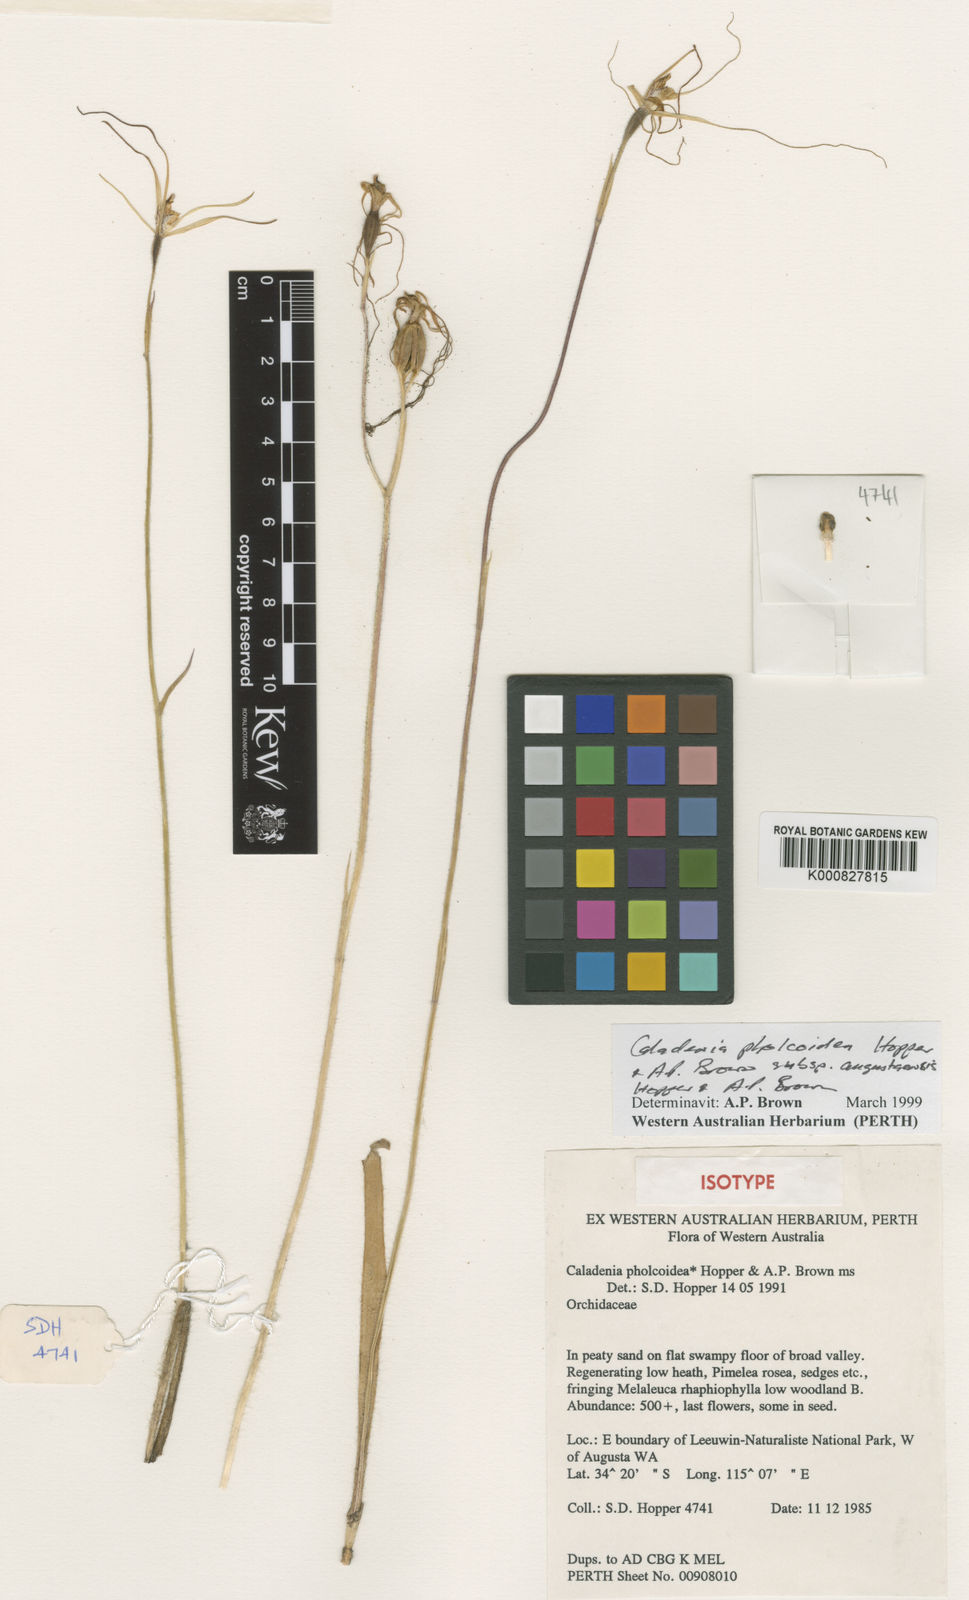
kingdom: Plantae
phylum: Tracheophyta
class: Liliopsida
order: Asparagales
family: Orchidaceae
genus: Caladenia
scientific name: Caladenia pholcoidea
